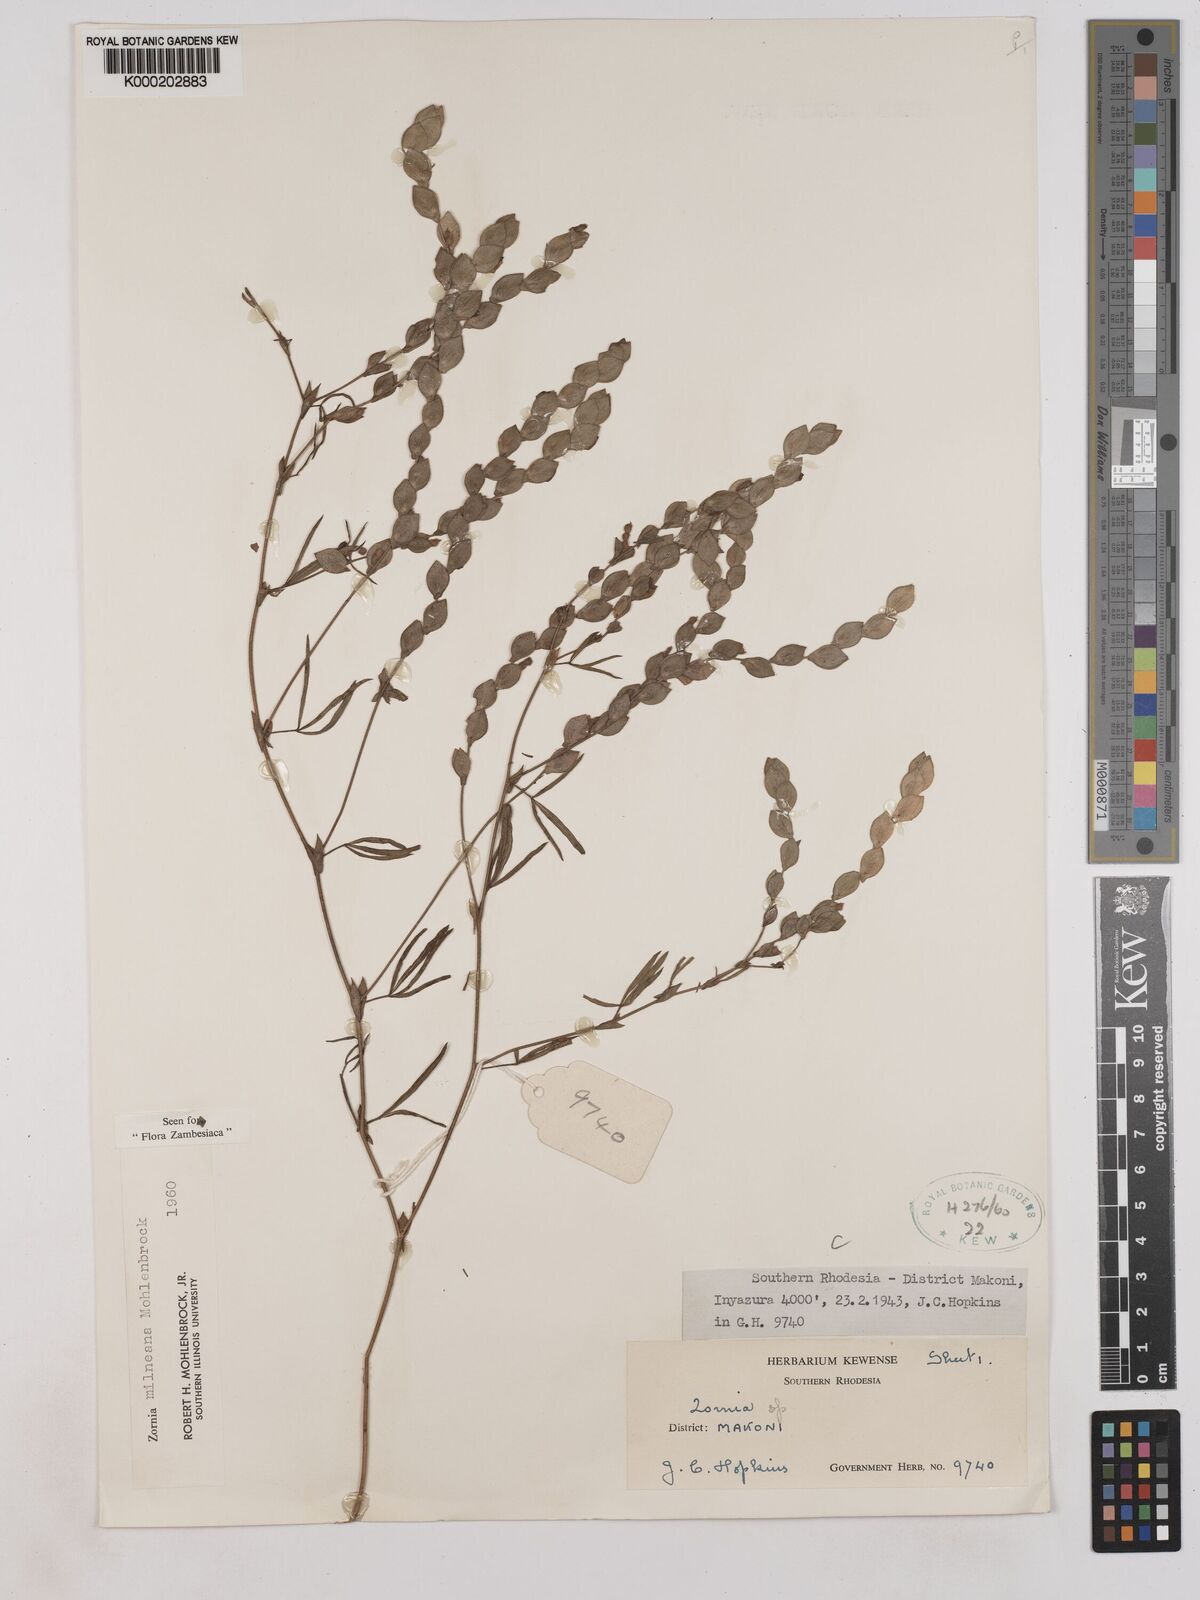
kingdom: Plantae
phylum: Tracheophyta
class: Magnoliopsida
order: Fabales
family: Fabaceae
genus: Zornia
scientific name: Zornia milneana
